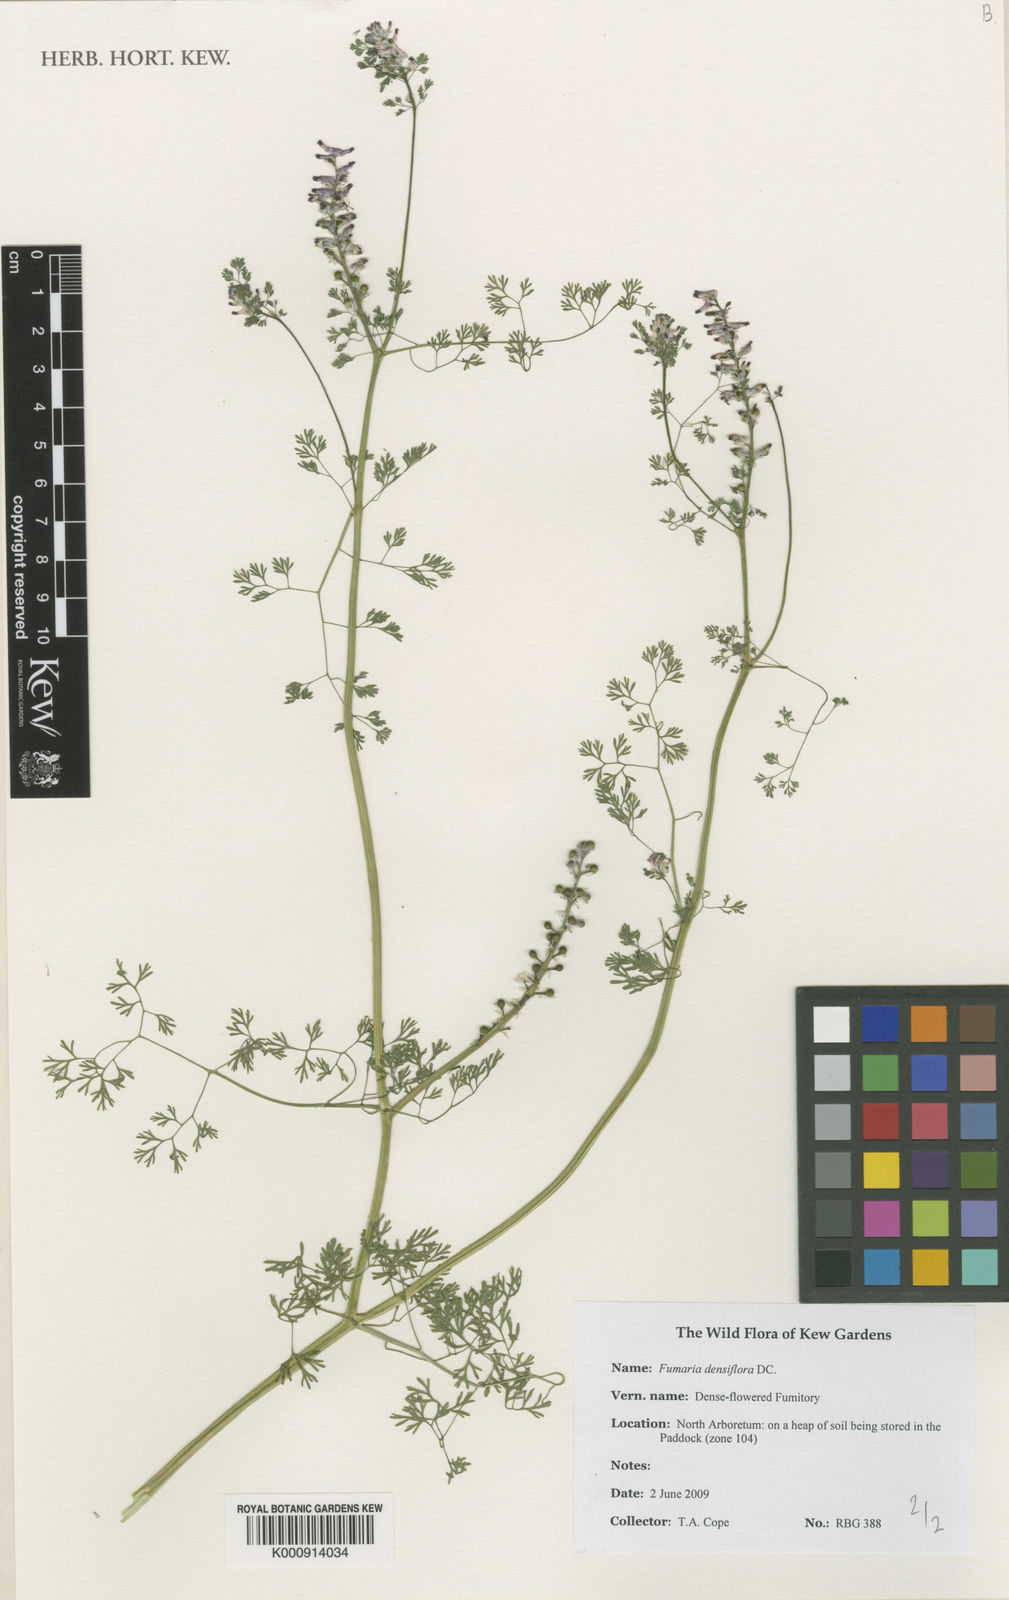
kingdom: Plantae
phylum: Tracheophyta
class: Magnoliopsida
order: Ranunculales
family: Papaveraceae
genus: Fumaria
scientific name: Fumaria densiflora
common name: Dense-flowered fumitory
